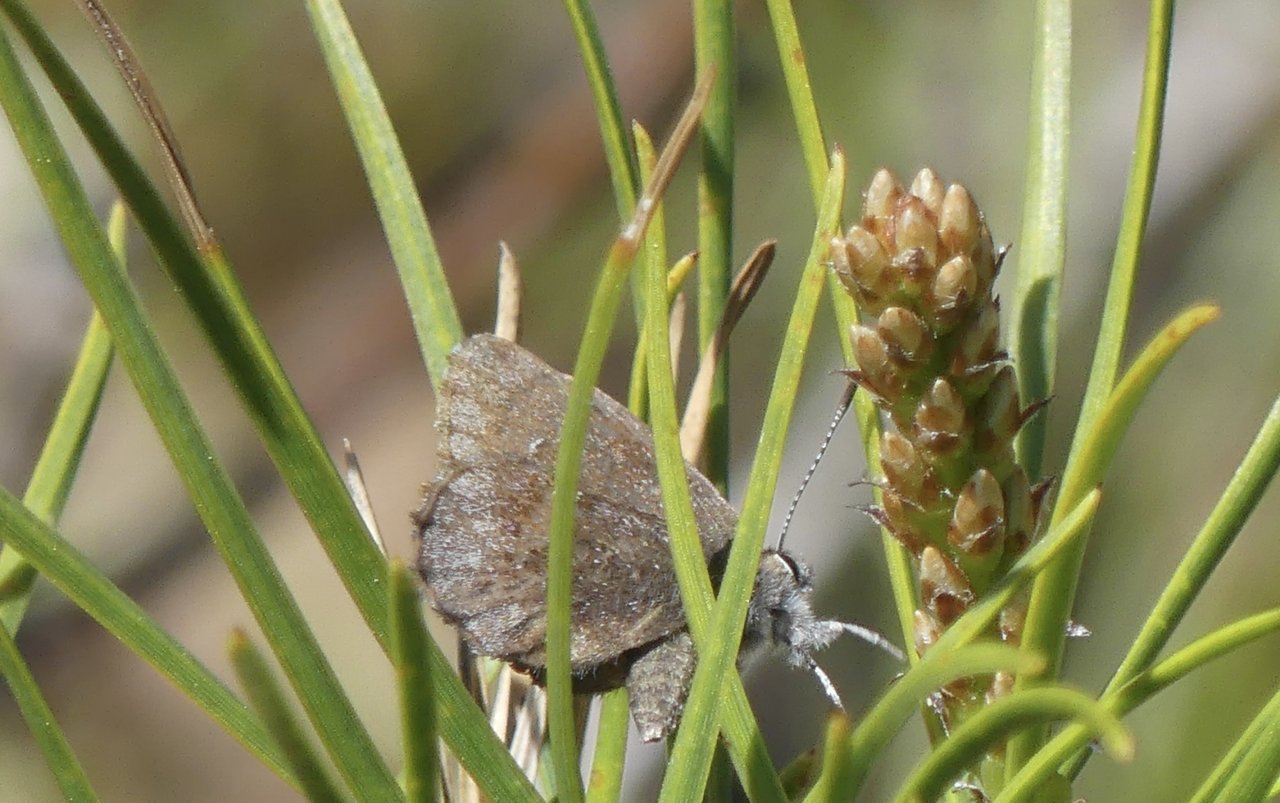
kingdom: Animalia
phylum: Arthropoda
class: Insecta
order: Lepidoptera
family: Lycaenidae
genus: Callophrys
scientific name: Callophrys polios
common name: Hoary Elfin
